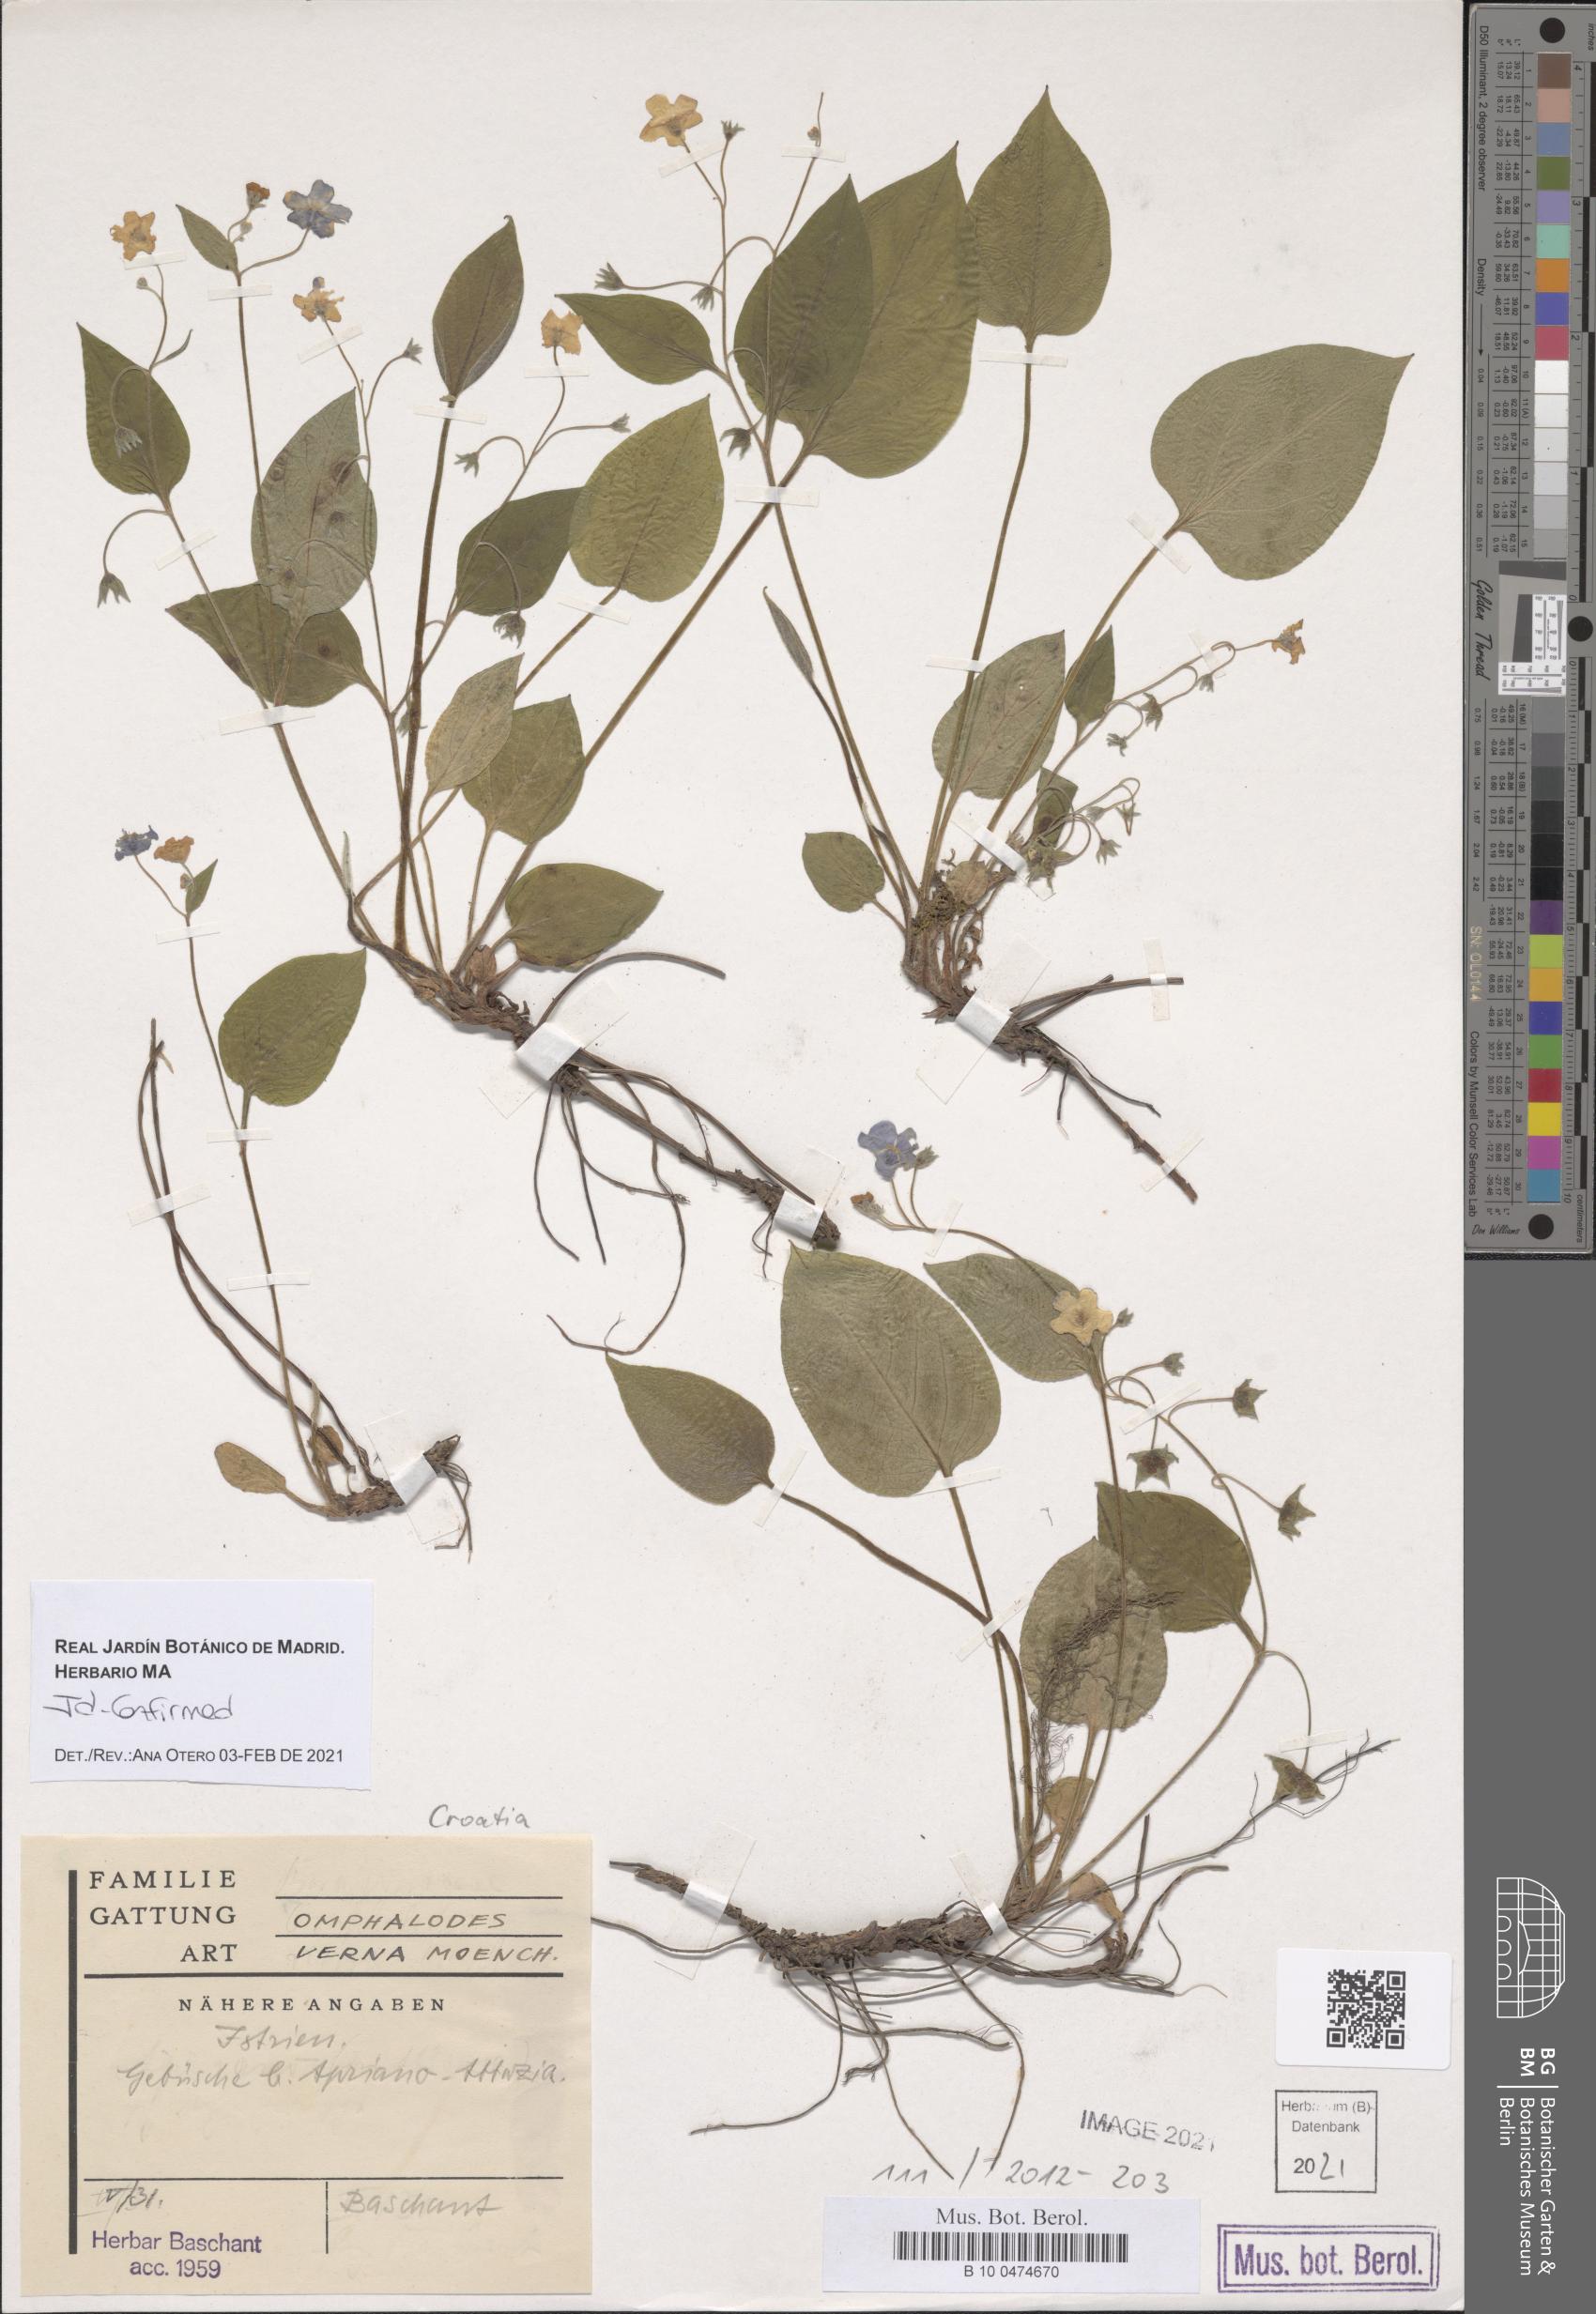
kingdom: Plantae
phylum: Tracheophyta
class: Magnoliopsida
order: Boraginales
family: Boraginaceae
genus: Omphalodes
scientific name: Omphalodes verna
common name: Blue-eyed-mary
